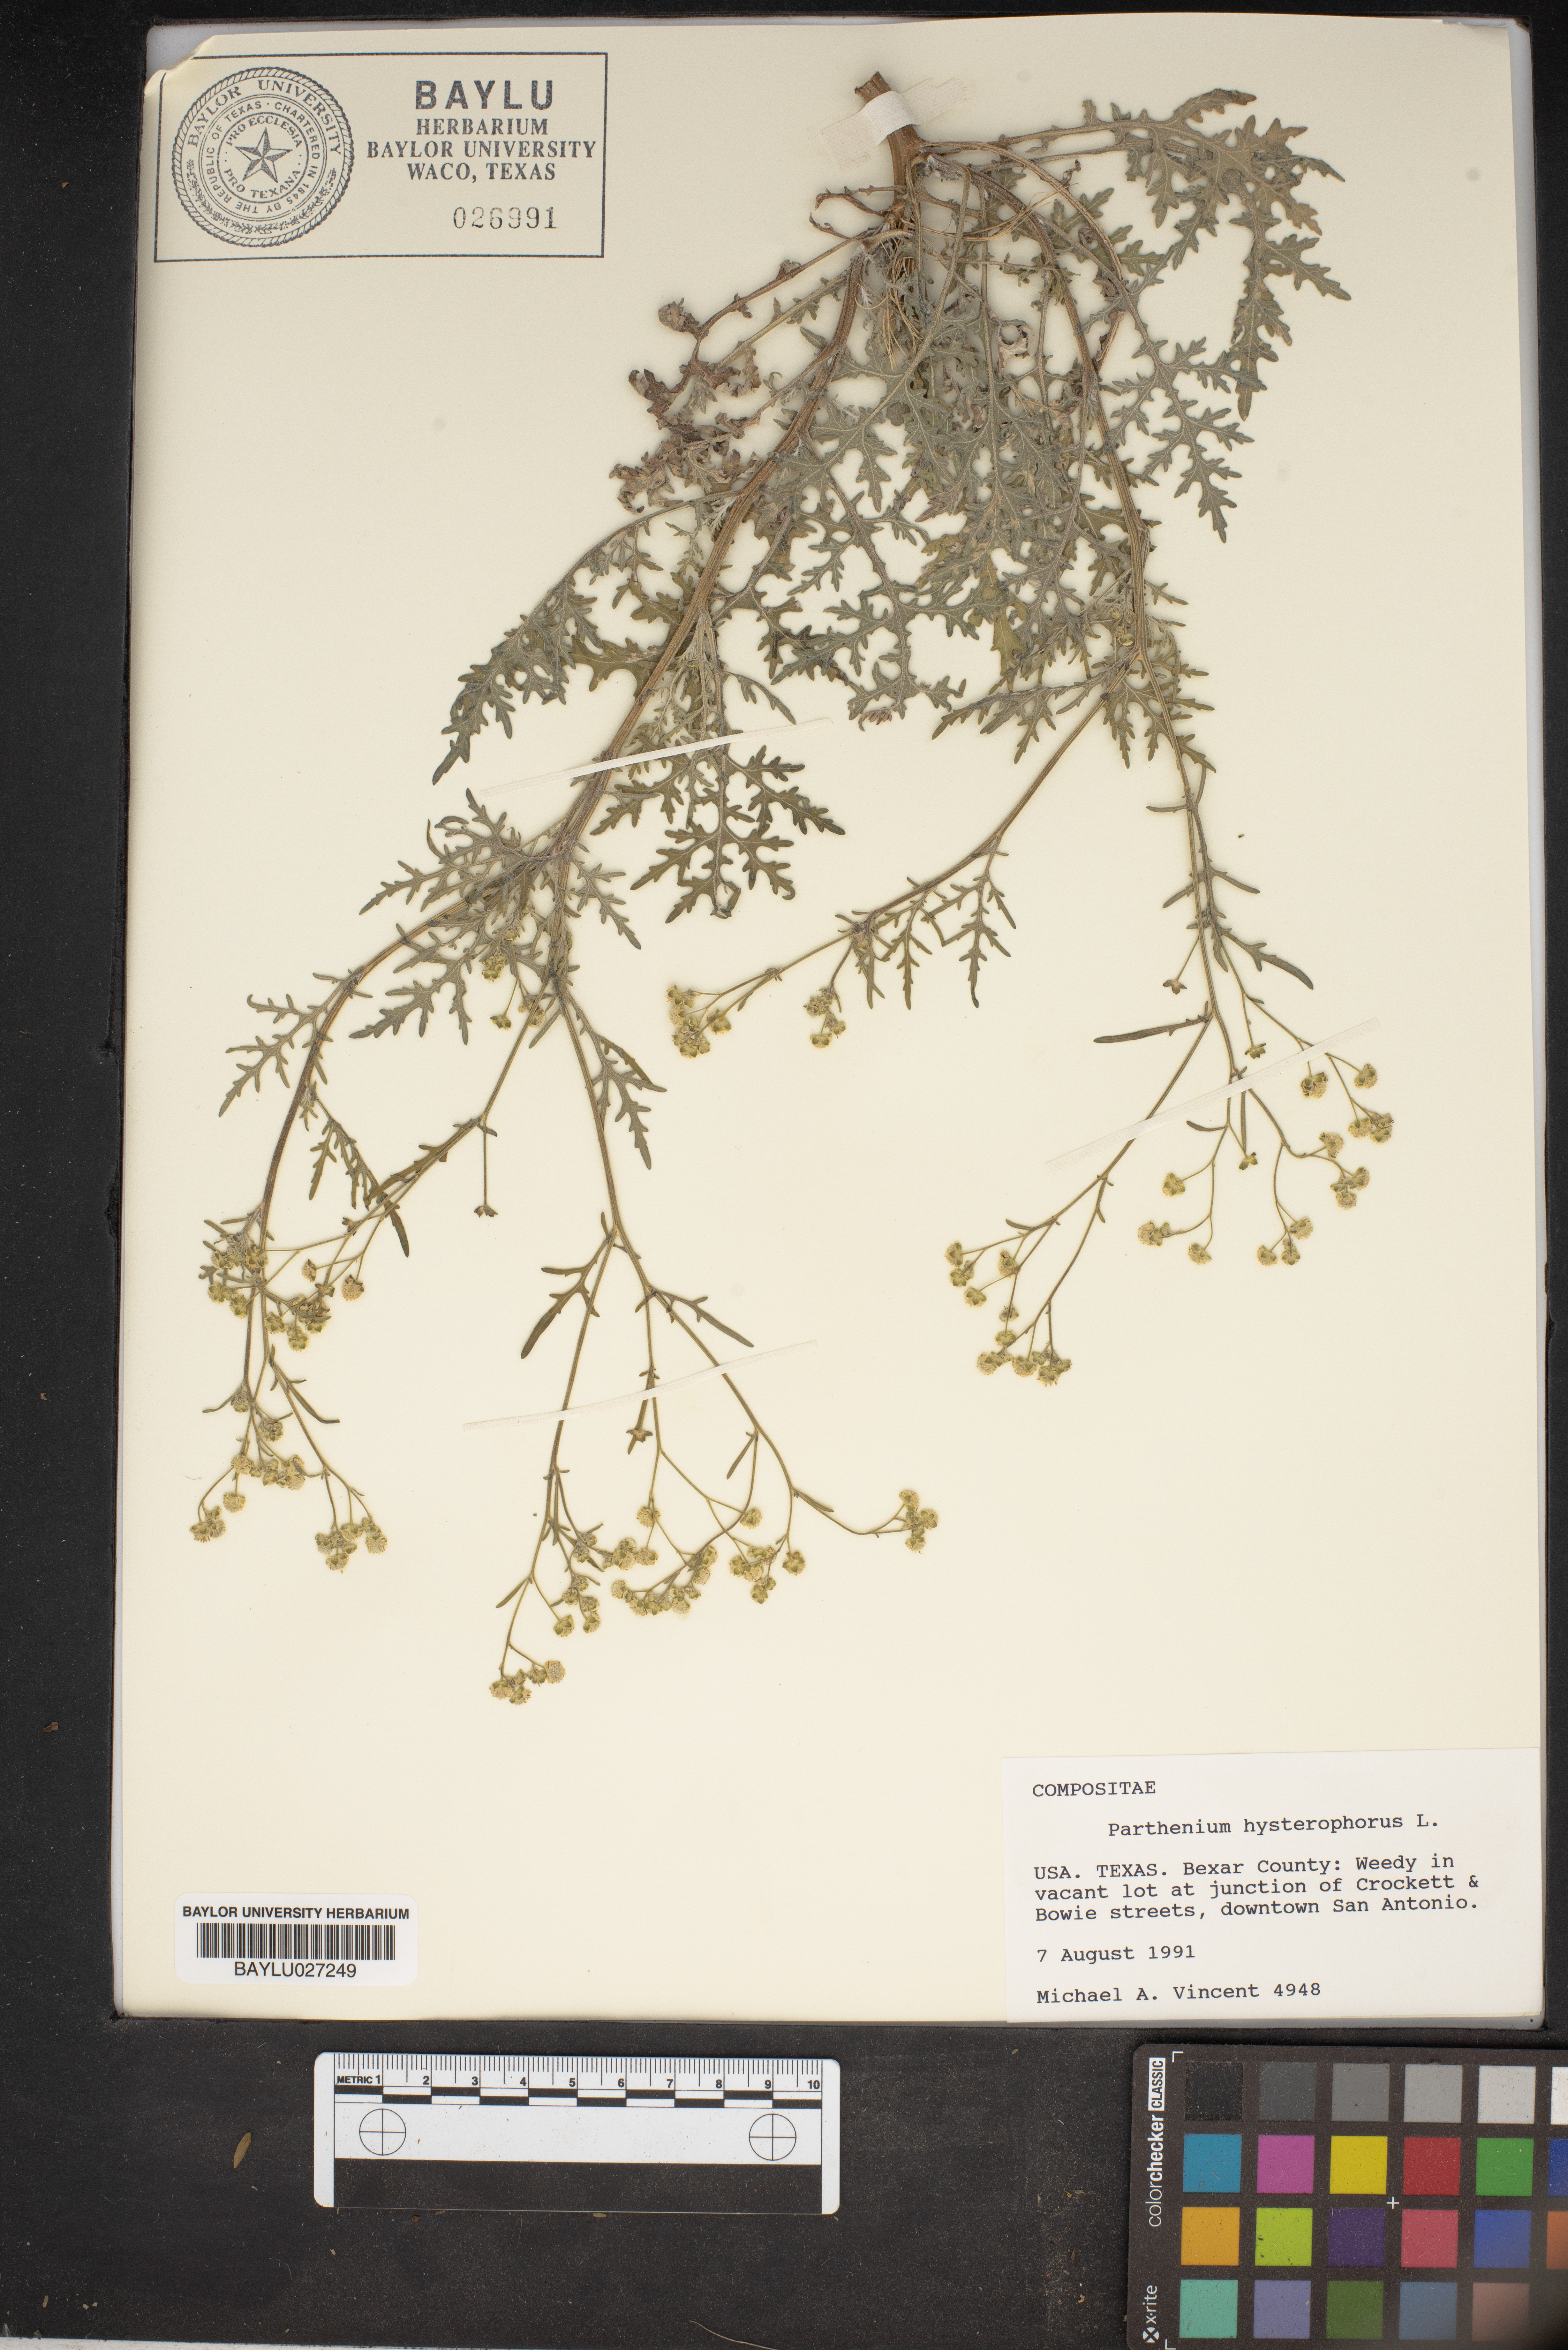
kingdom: Plantae
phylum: Tracheophyta
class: Magnoliopsida
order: Asterales
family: Asteraceae
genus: Parthenium
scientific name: Parthenium hysterophorus
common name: Santa maria feverfew
